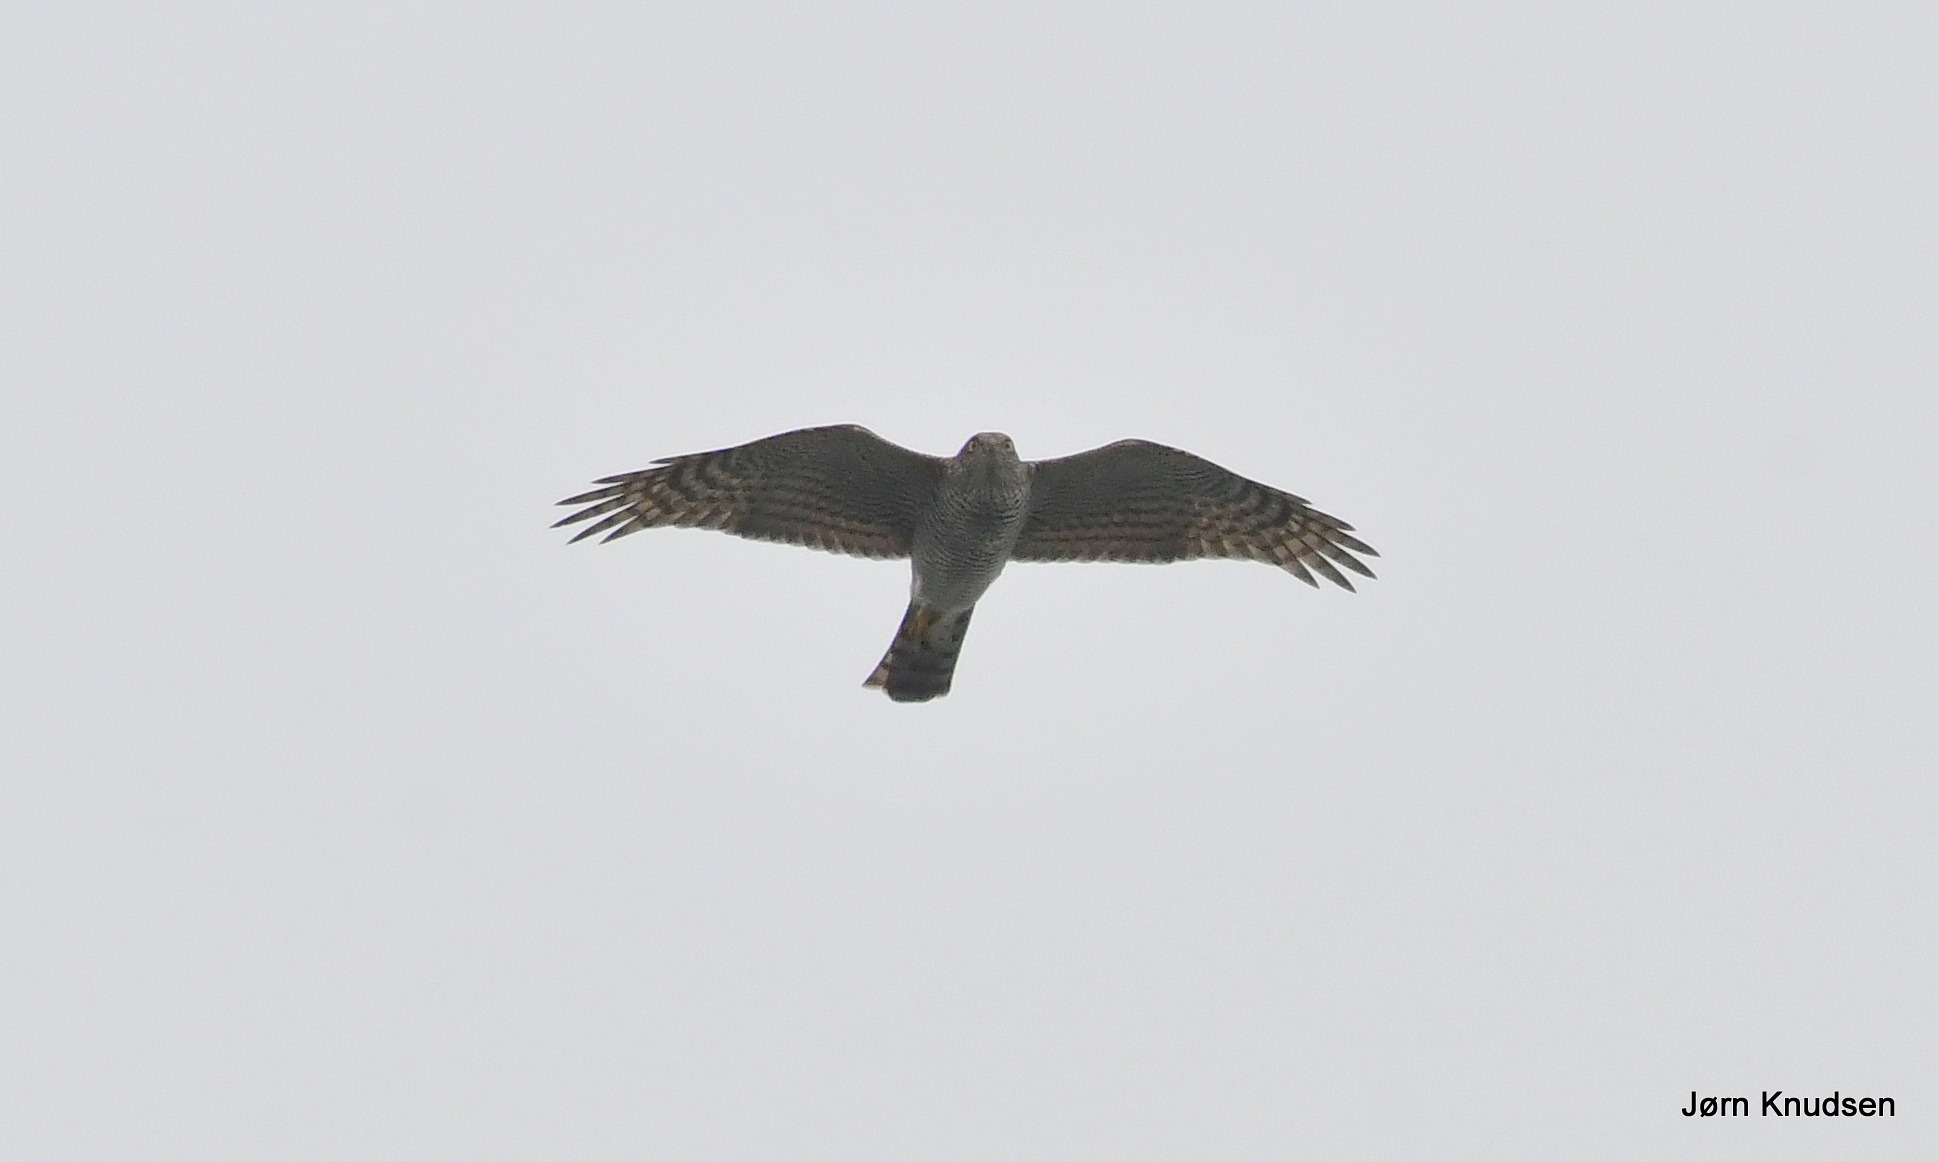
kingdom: Animalia
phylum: Chordata
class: Aves
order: Accipitriformes
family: Accipitridae
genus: Accipiter
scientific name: Accipiter nisus
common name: Spurvehøg
